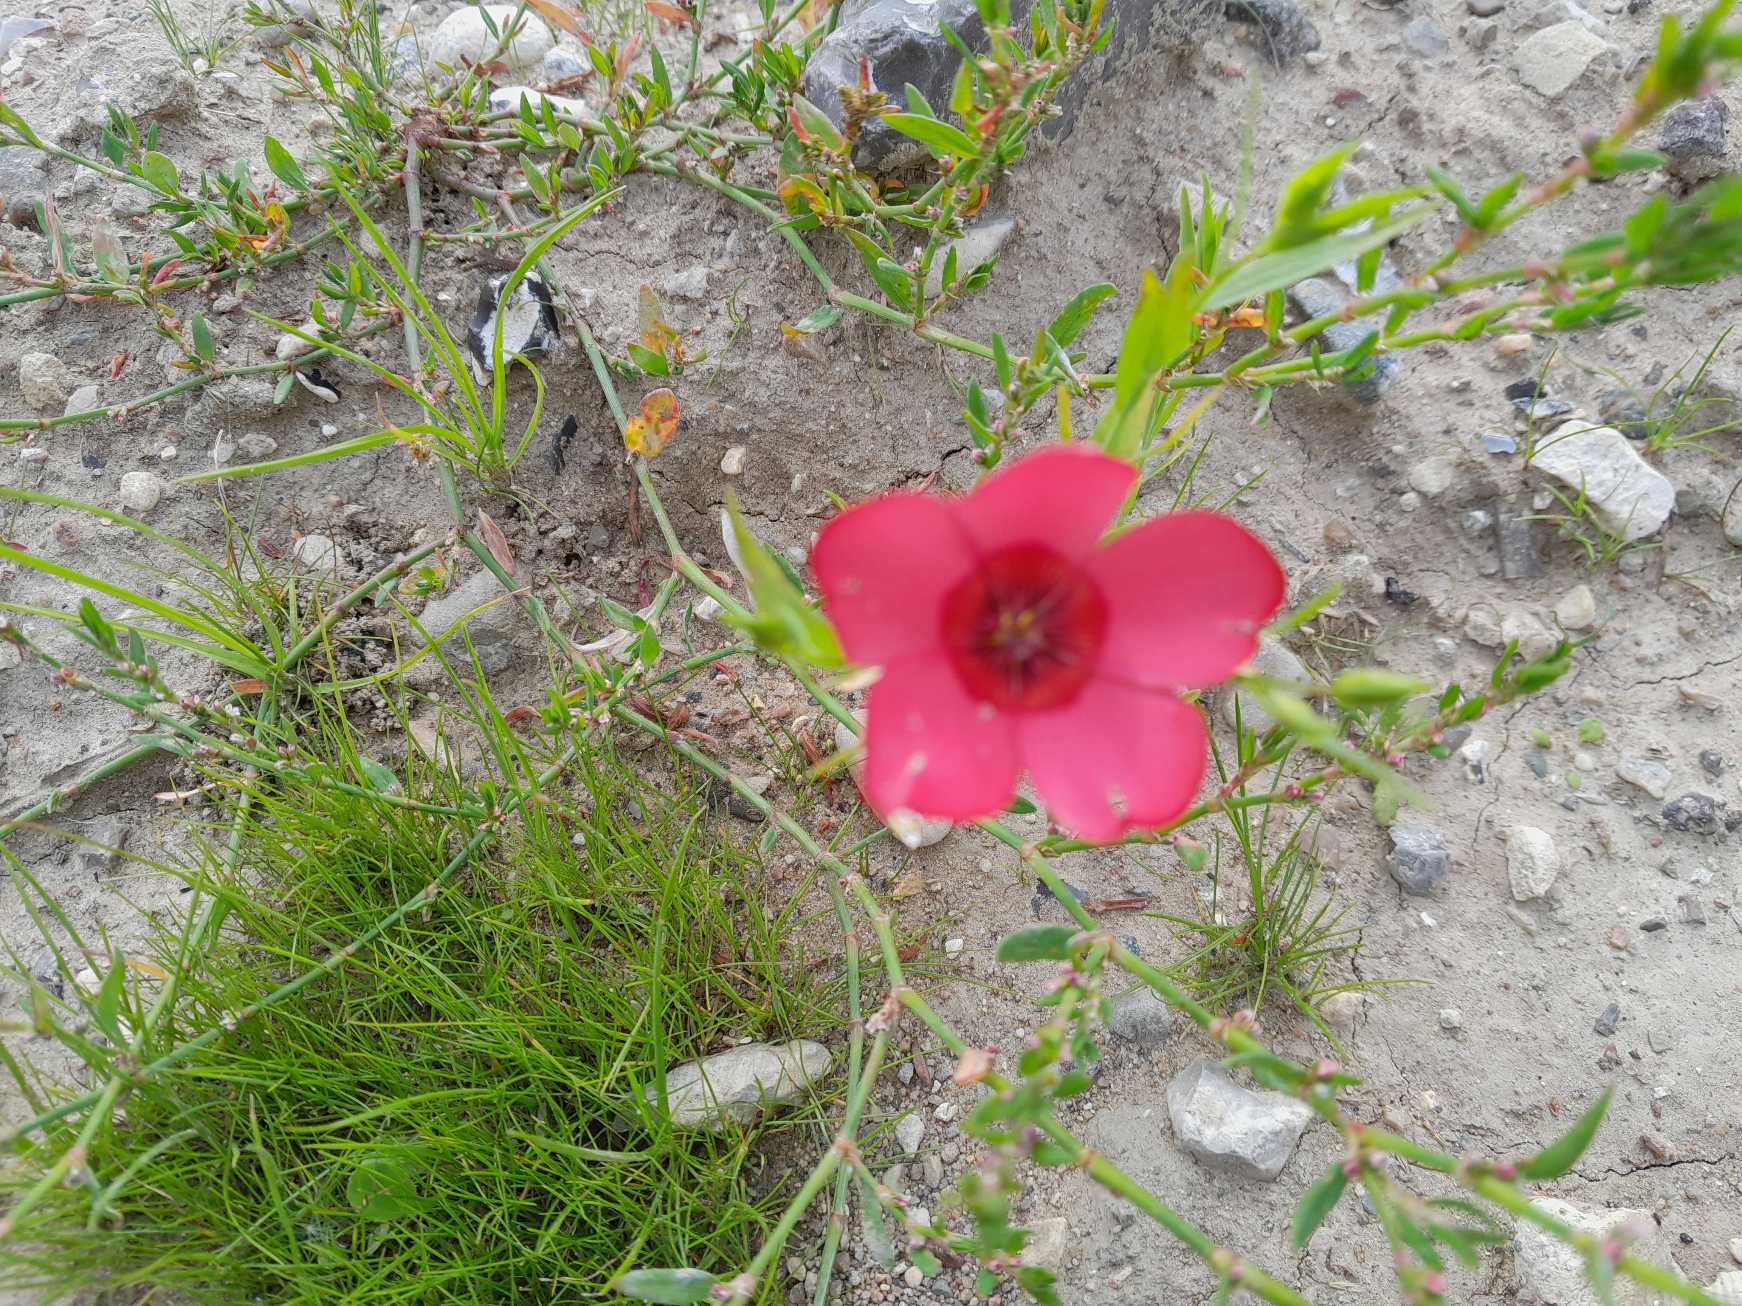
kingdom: Plantae
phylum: Tracheophyta
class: Magnoliopsida
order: Malpighiales
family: Linaceae
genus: Linum
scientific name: Linum grandiflorum
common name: Rød hør
